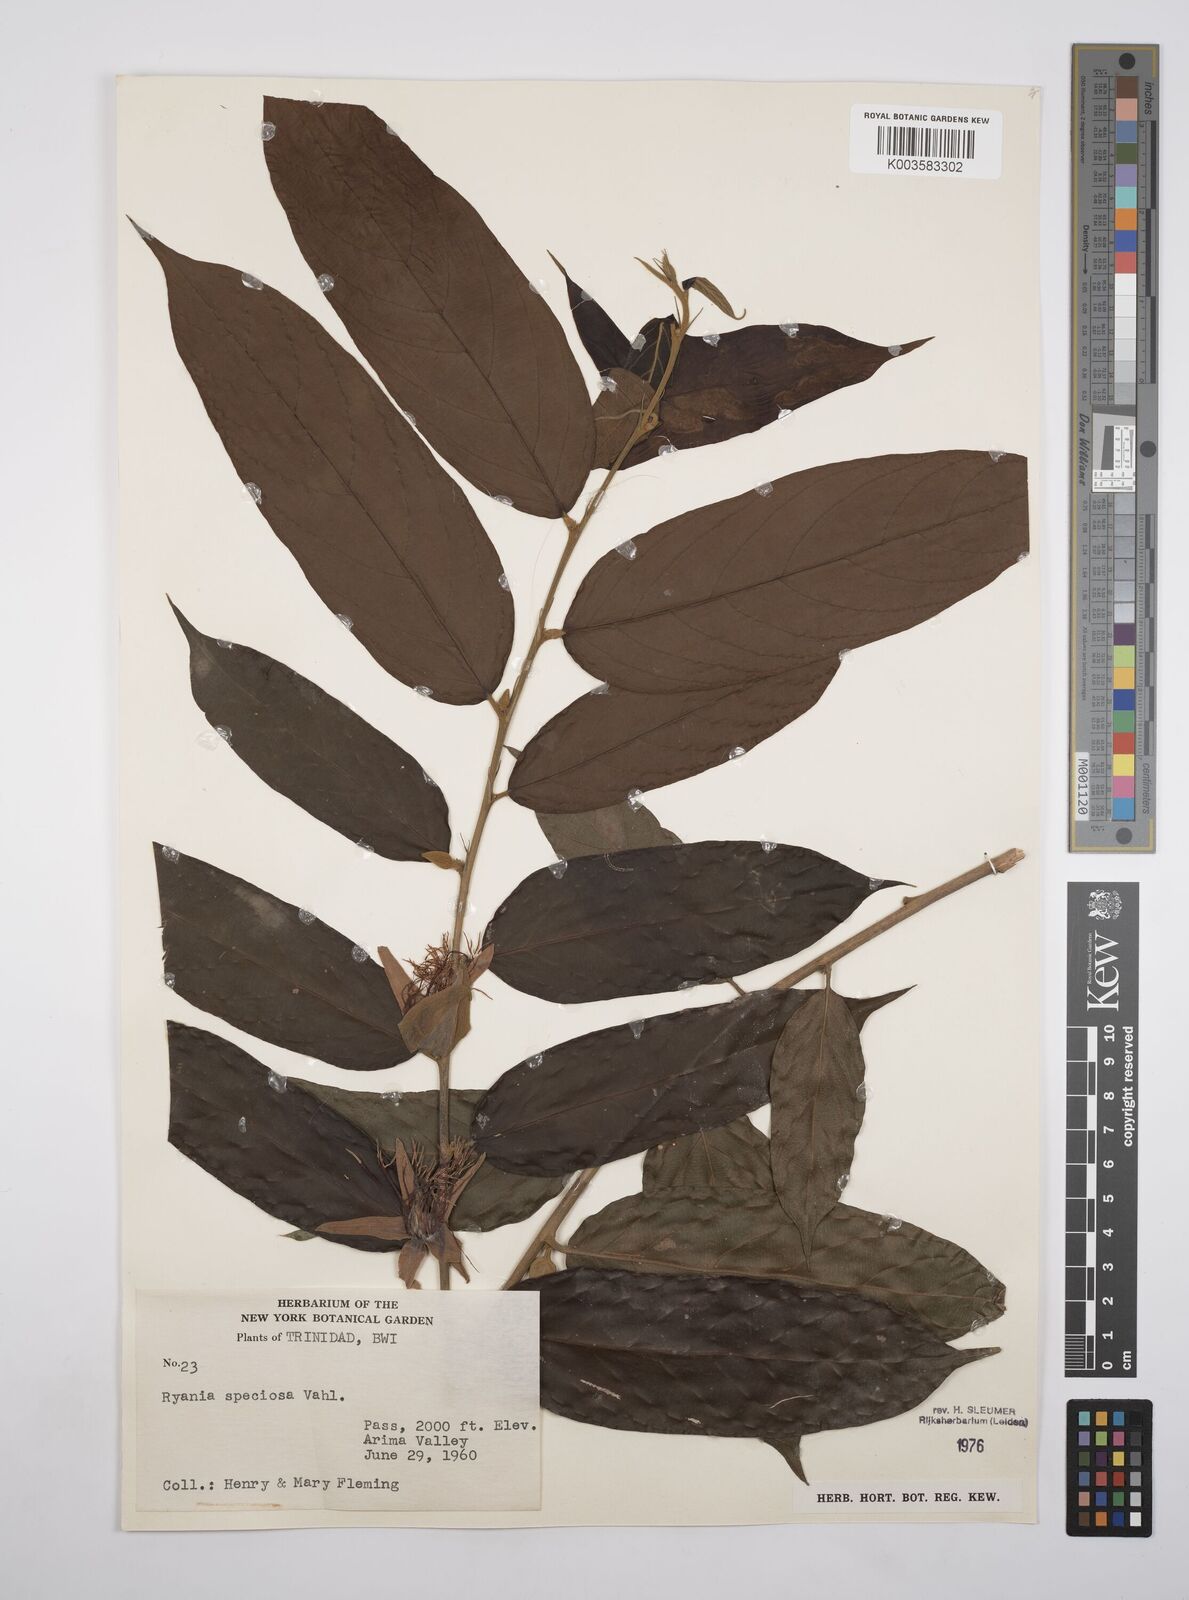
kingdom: Plantae
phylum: Tracheophyta
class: Magnoliopsida
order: Malpighiales
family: Salicaceae
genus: Ryania
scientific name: Ryania speciosa
